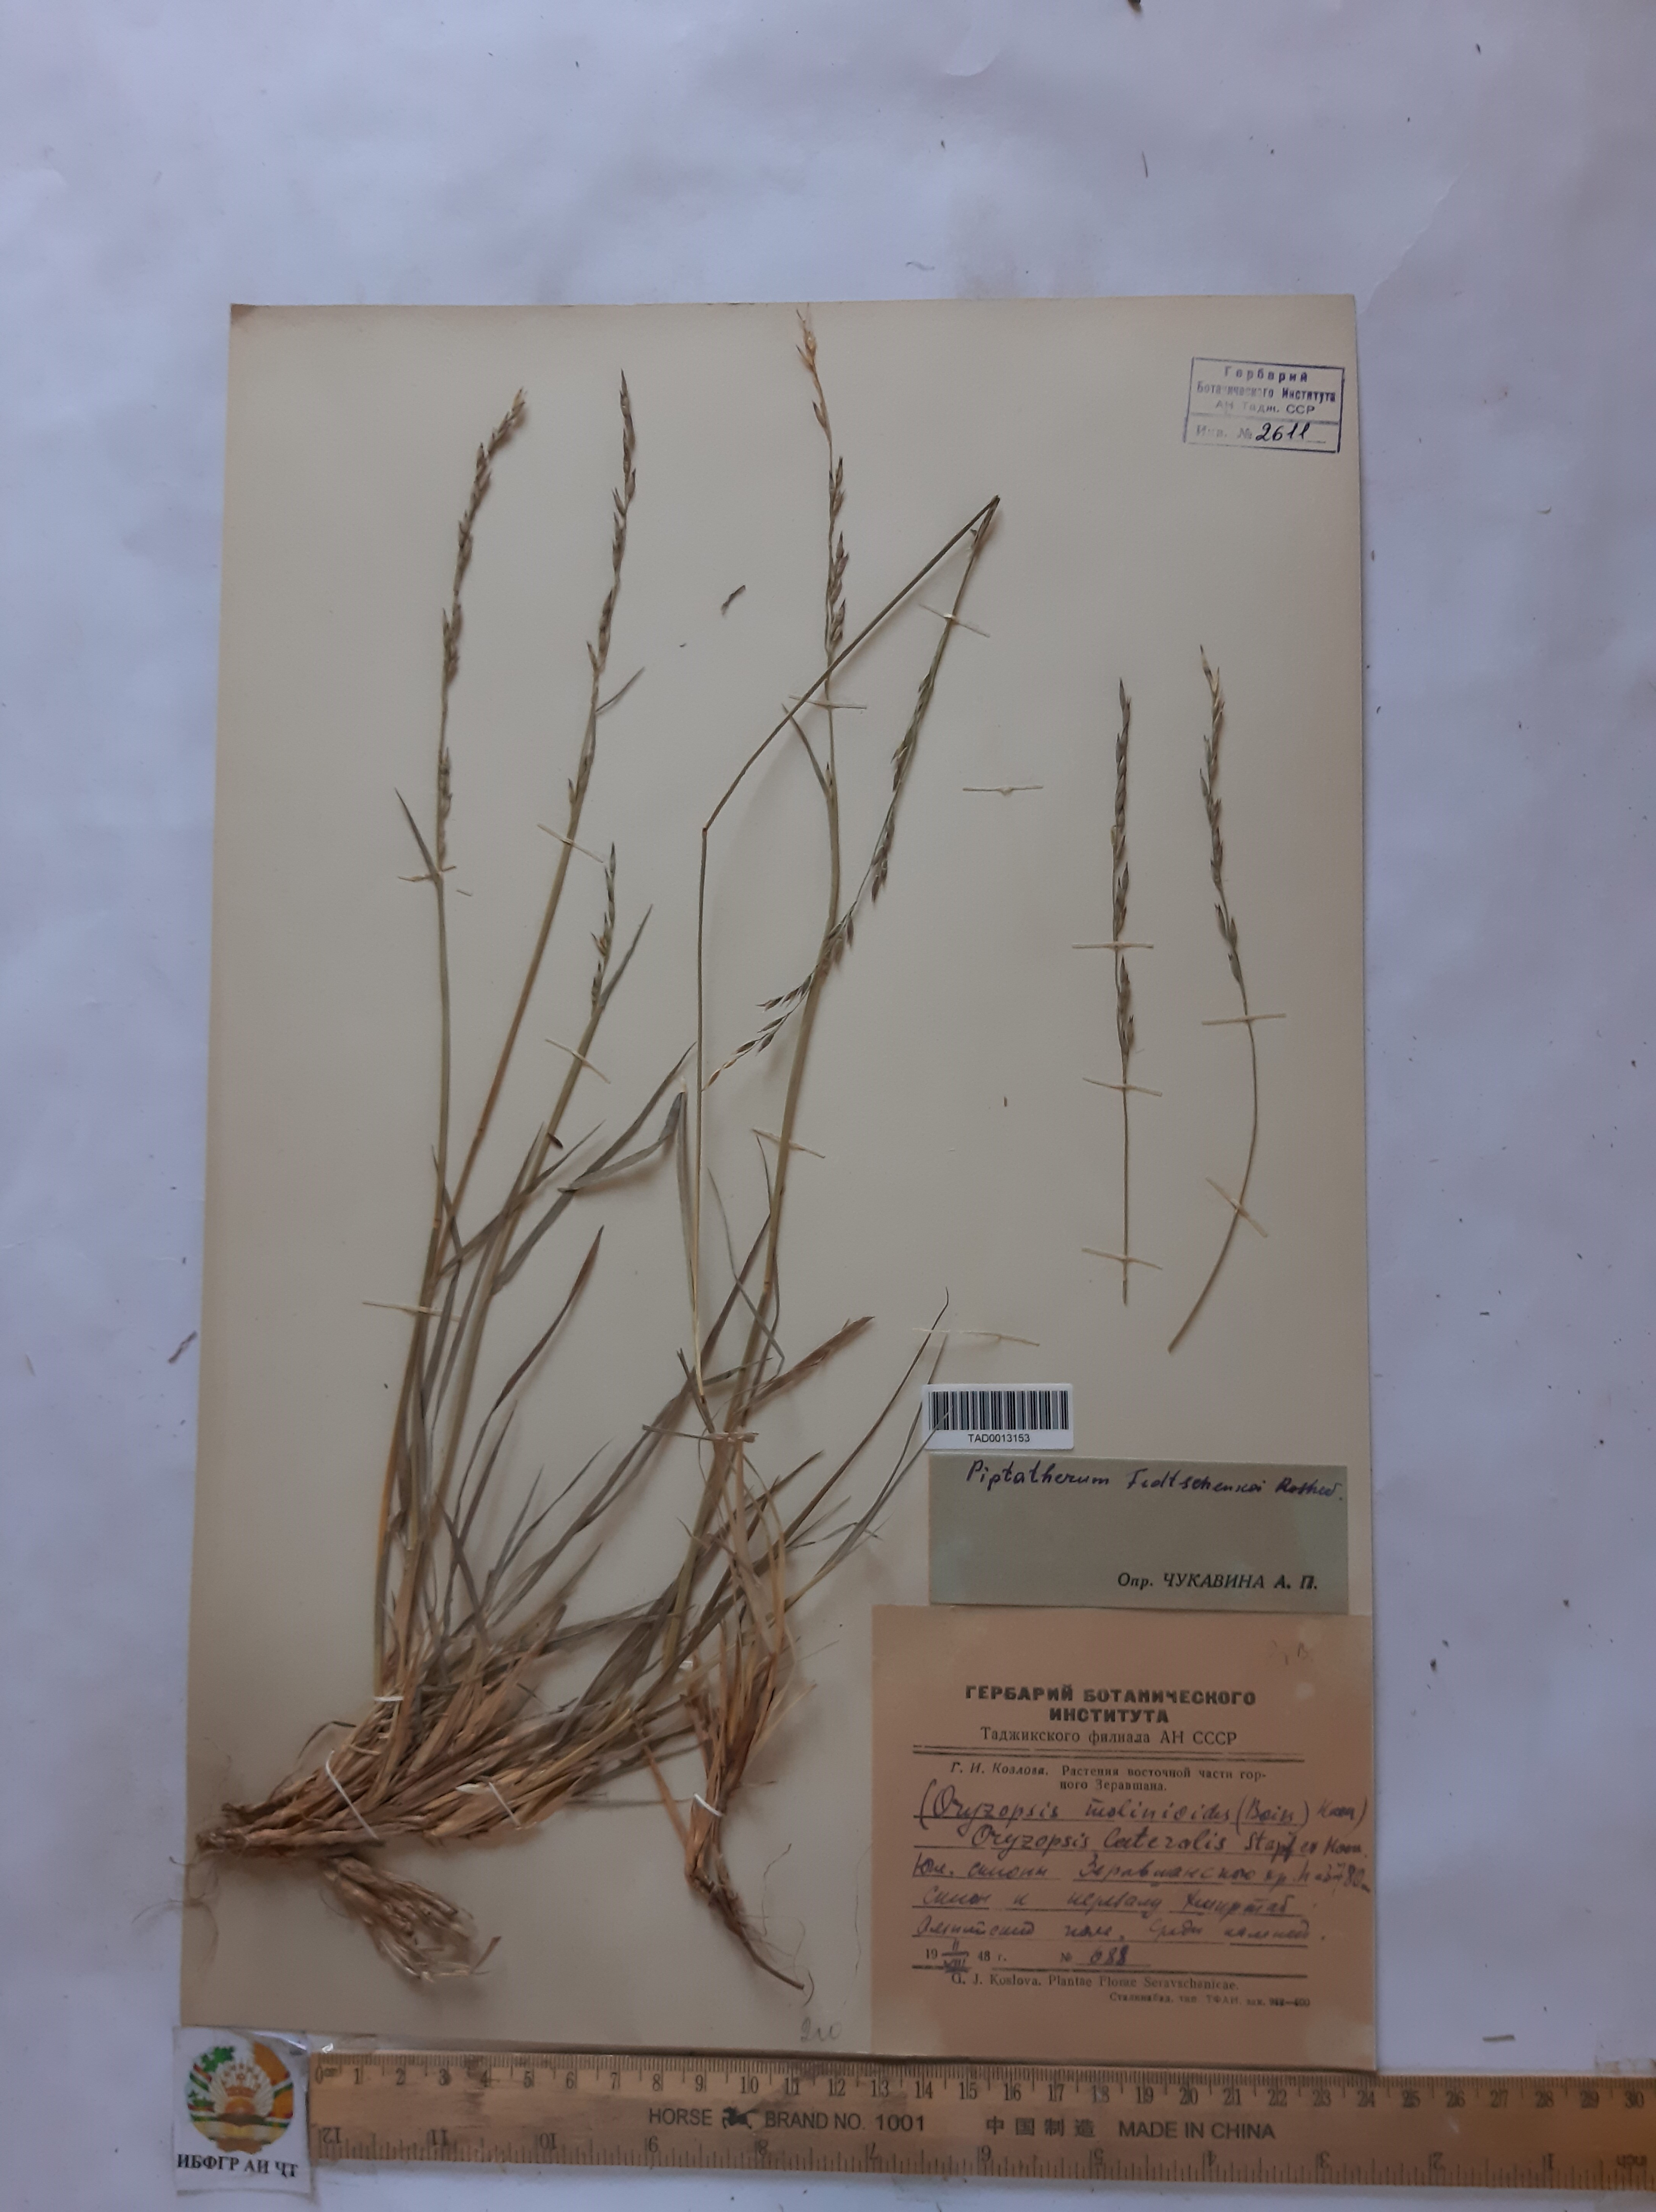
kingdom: Plantae
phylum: Tracheophyta
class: Liliopsida
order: Poales
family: Poaceae
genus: Piptatherum
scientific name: Piptatherum sogdianum
